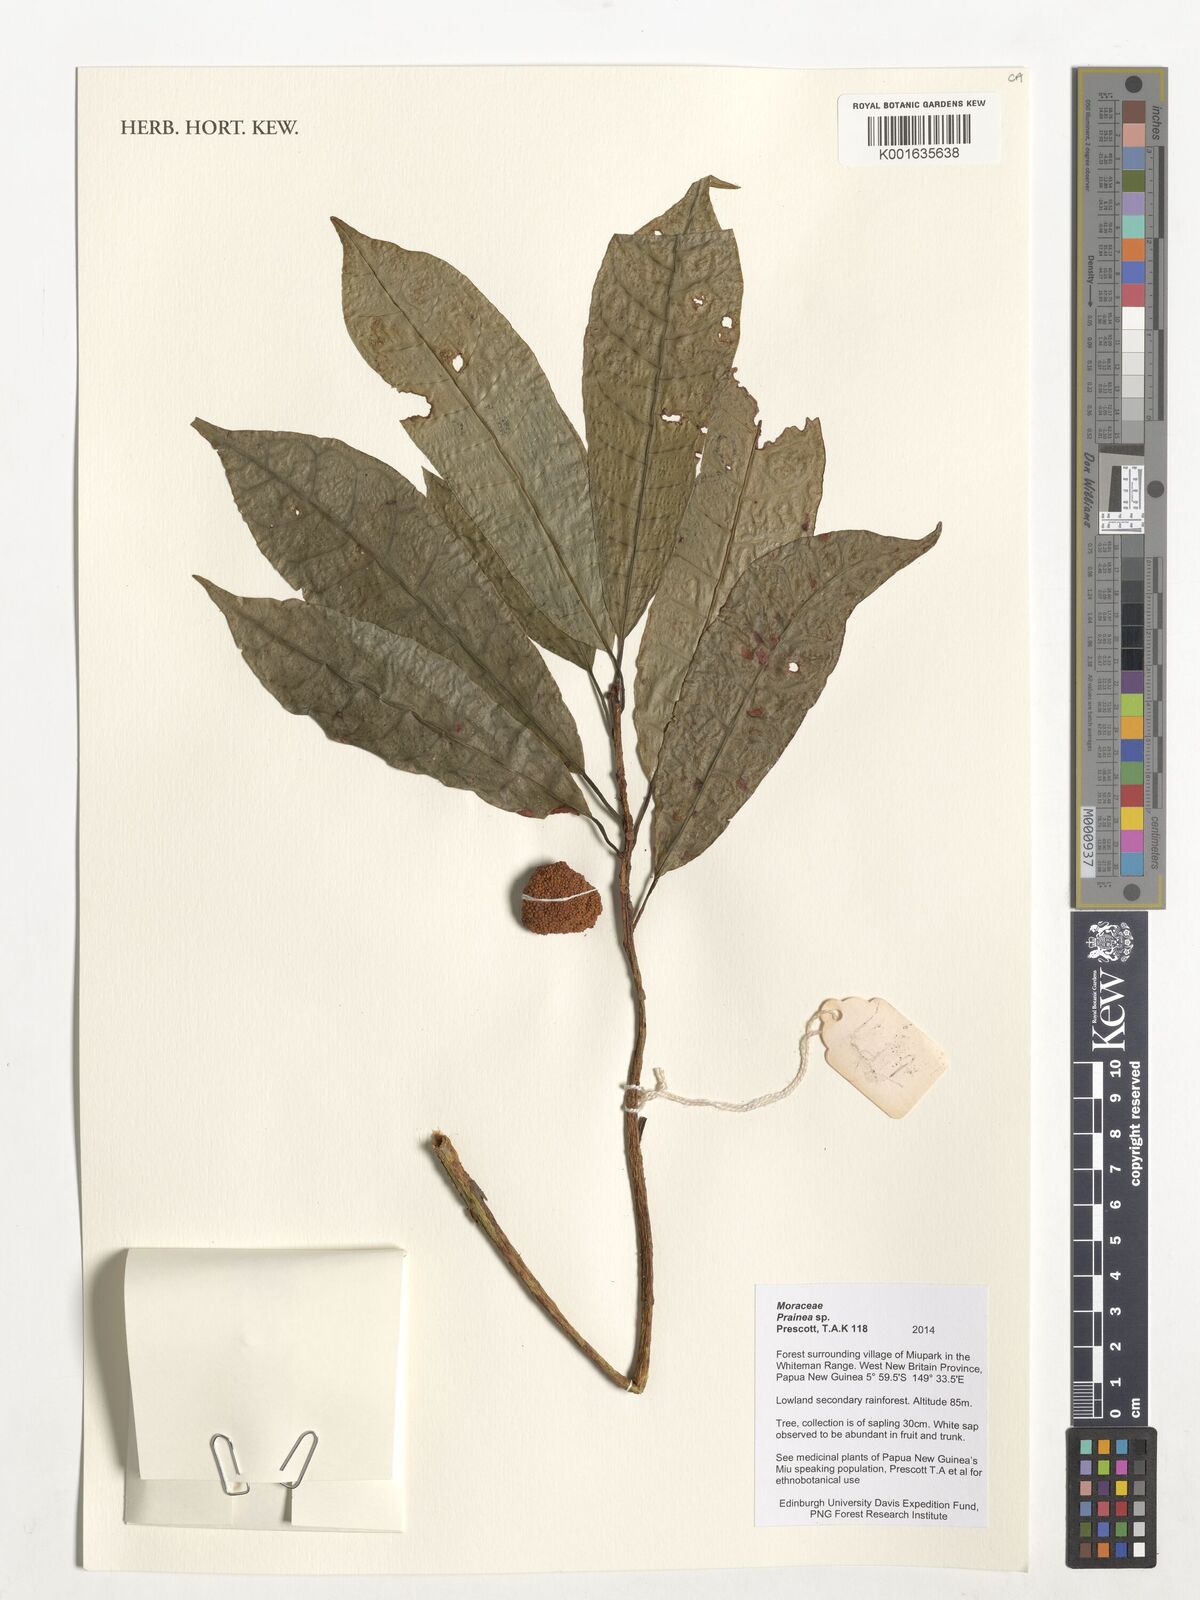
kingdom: Plantae
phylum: Tracheophyta
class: Magnoliopsida
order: Rosales
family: Moraceae
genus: Prainea
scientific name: Prainea
